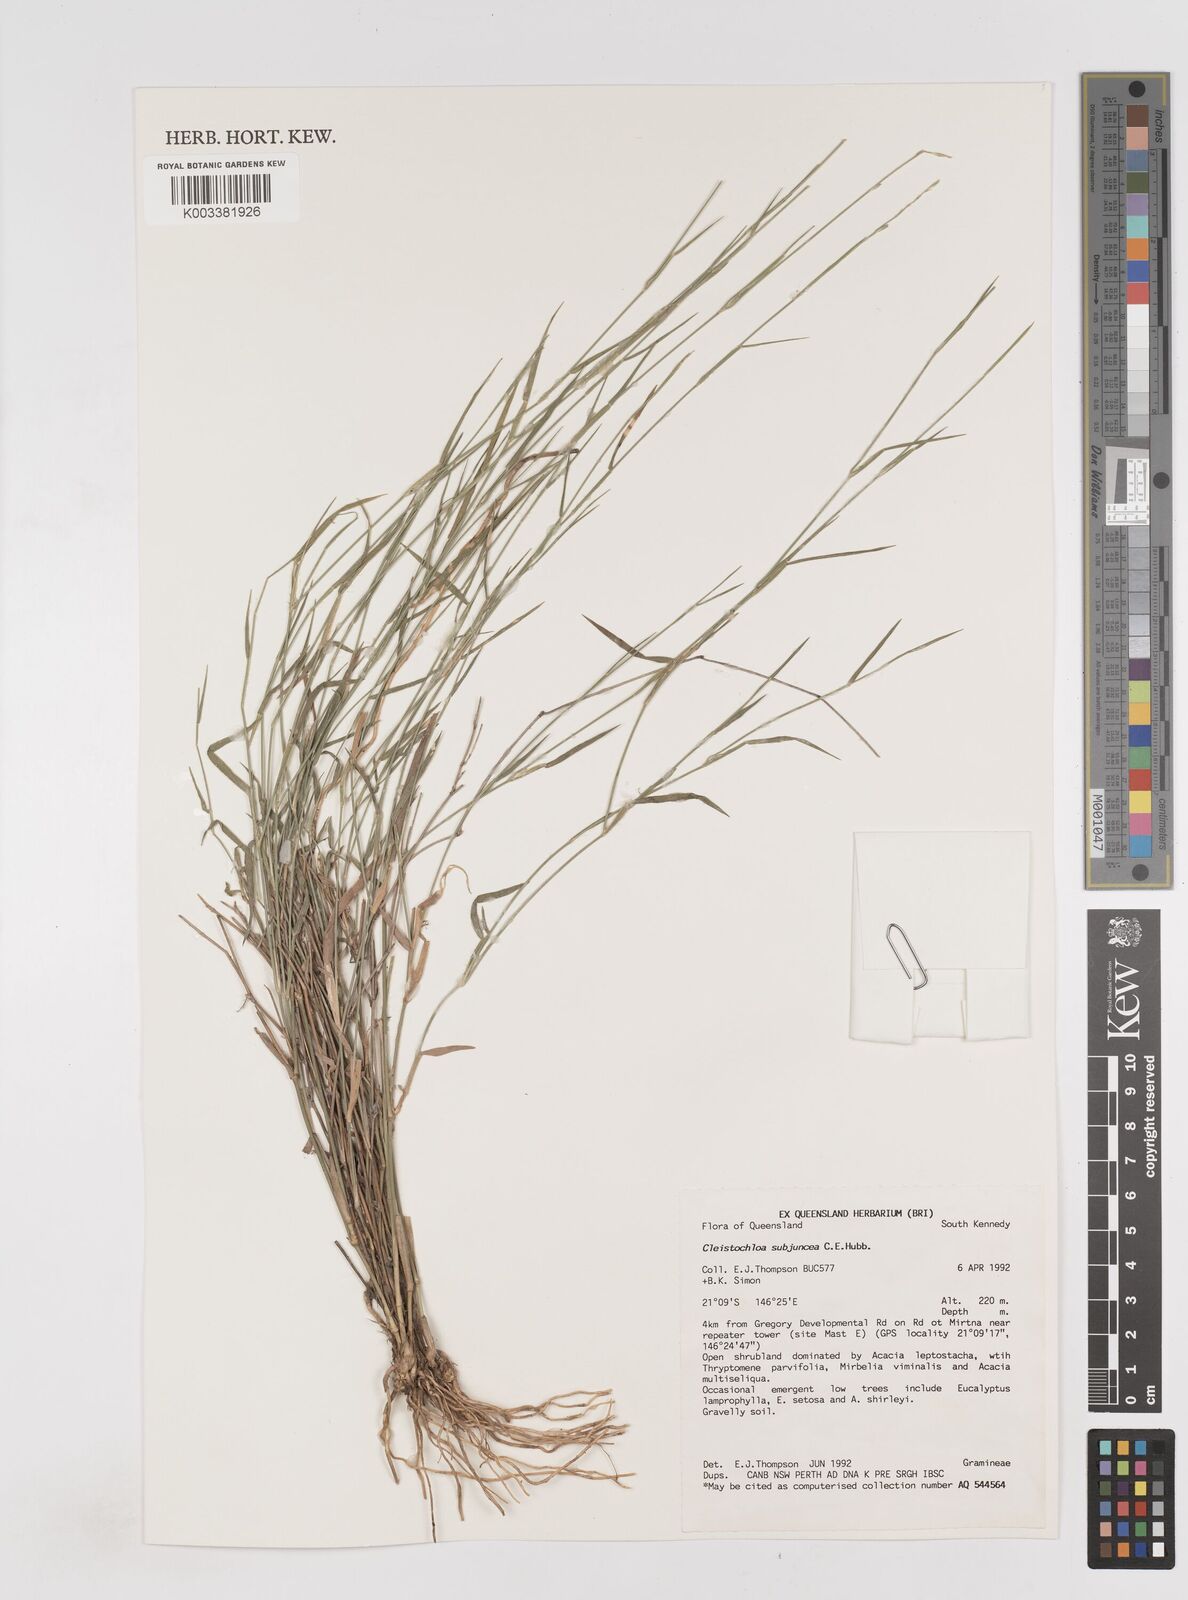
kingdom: Plantae
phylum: Tracheophyta
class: Liliopsida
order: Poales
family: Poaceae
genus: Cleistochloa
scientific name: Cleistochloa subjuncea
